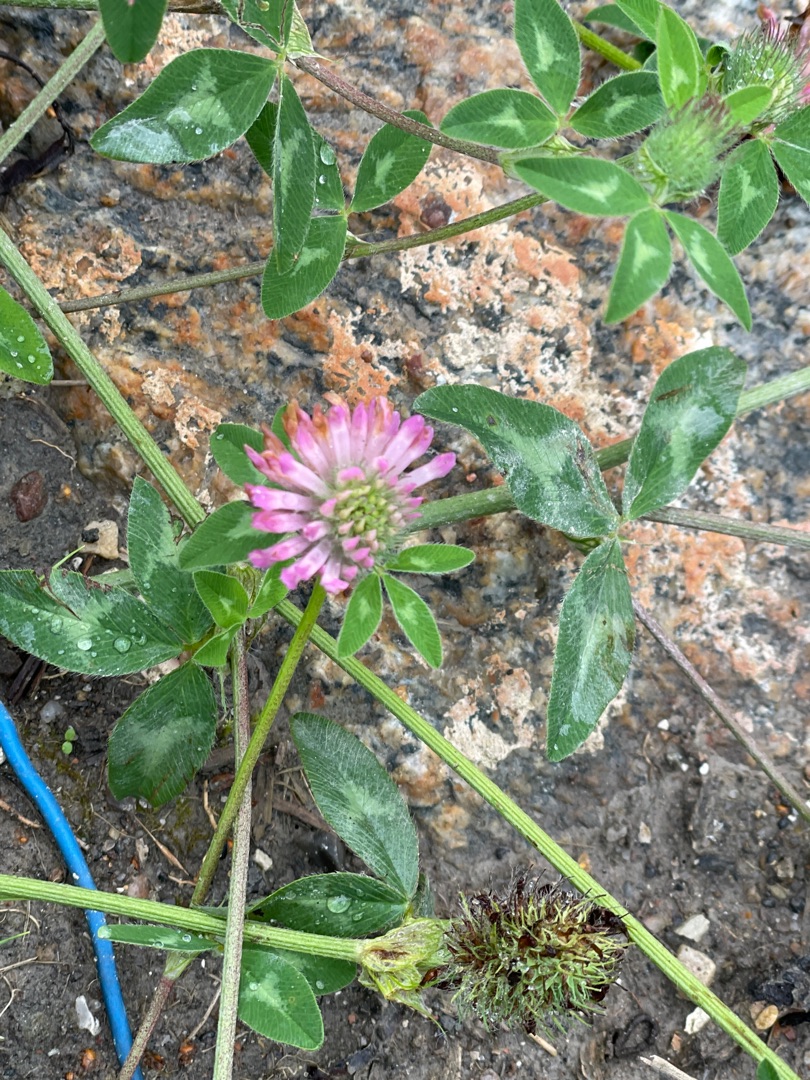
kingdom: Plantae
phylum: Tracheophyta
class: Magnoliopsida
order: Fabales
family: Fabaceae
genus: Trifolium
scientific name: Trifolium pratense
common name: Rød-kløver
